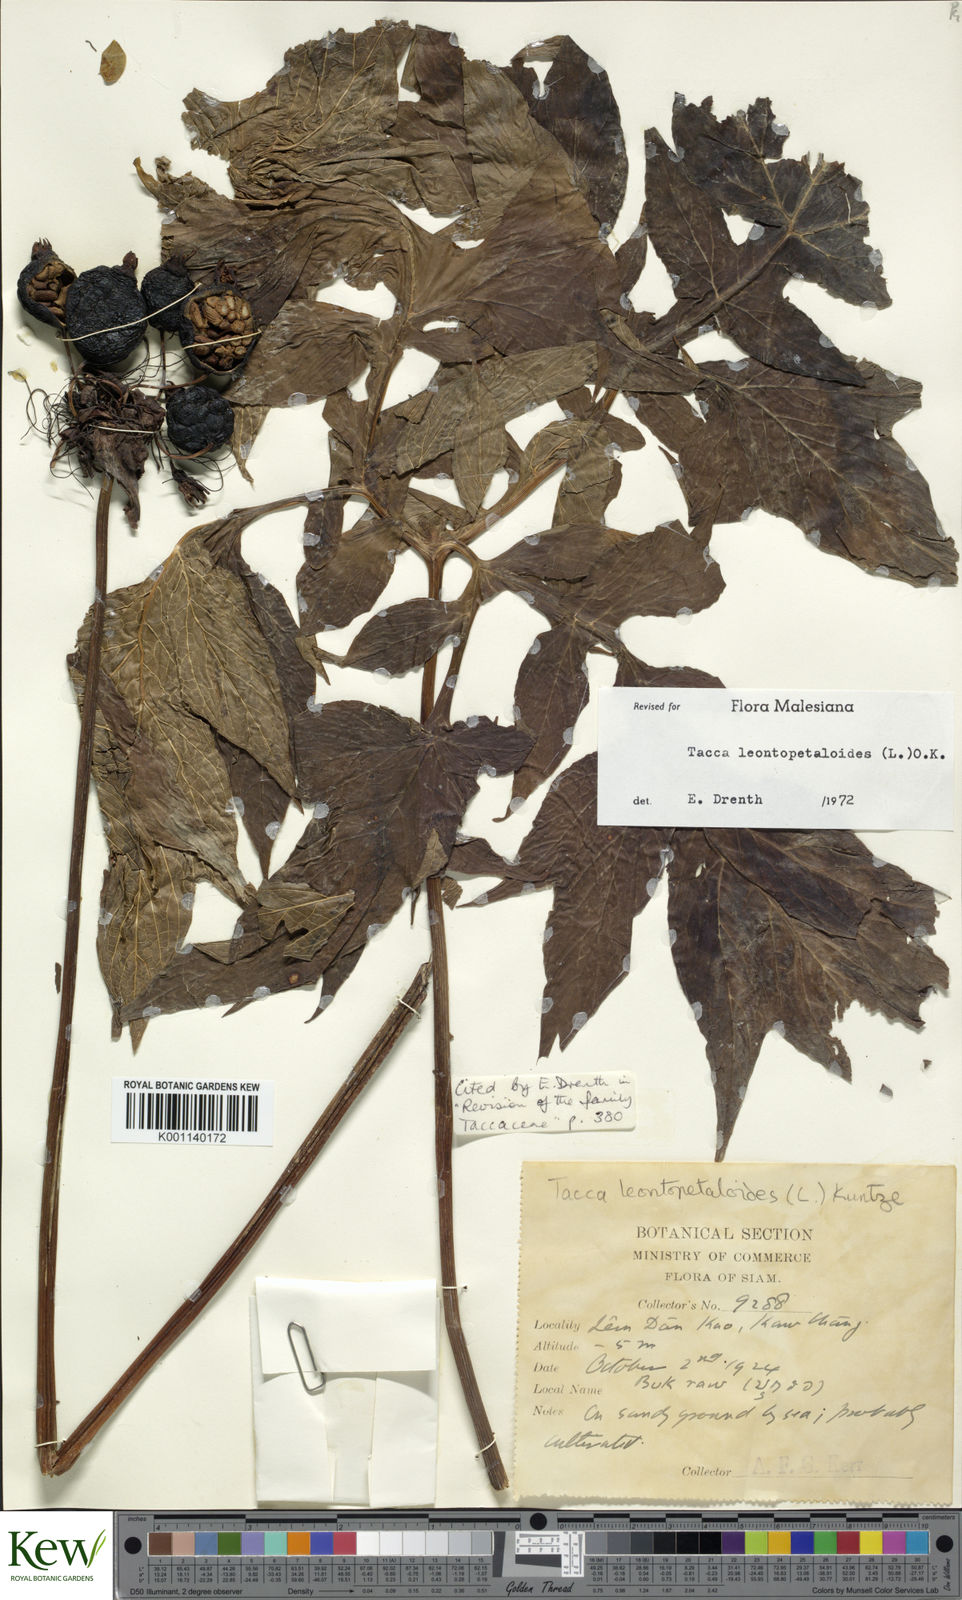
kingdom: Plantae
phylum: Tracheophyta
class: Liliopsida
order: Dioscoreales
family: Dioscoreaceae
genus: Tacca
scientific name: Tacca leontopetaloides
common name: Arrowroot
